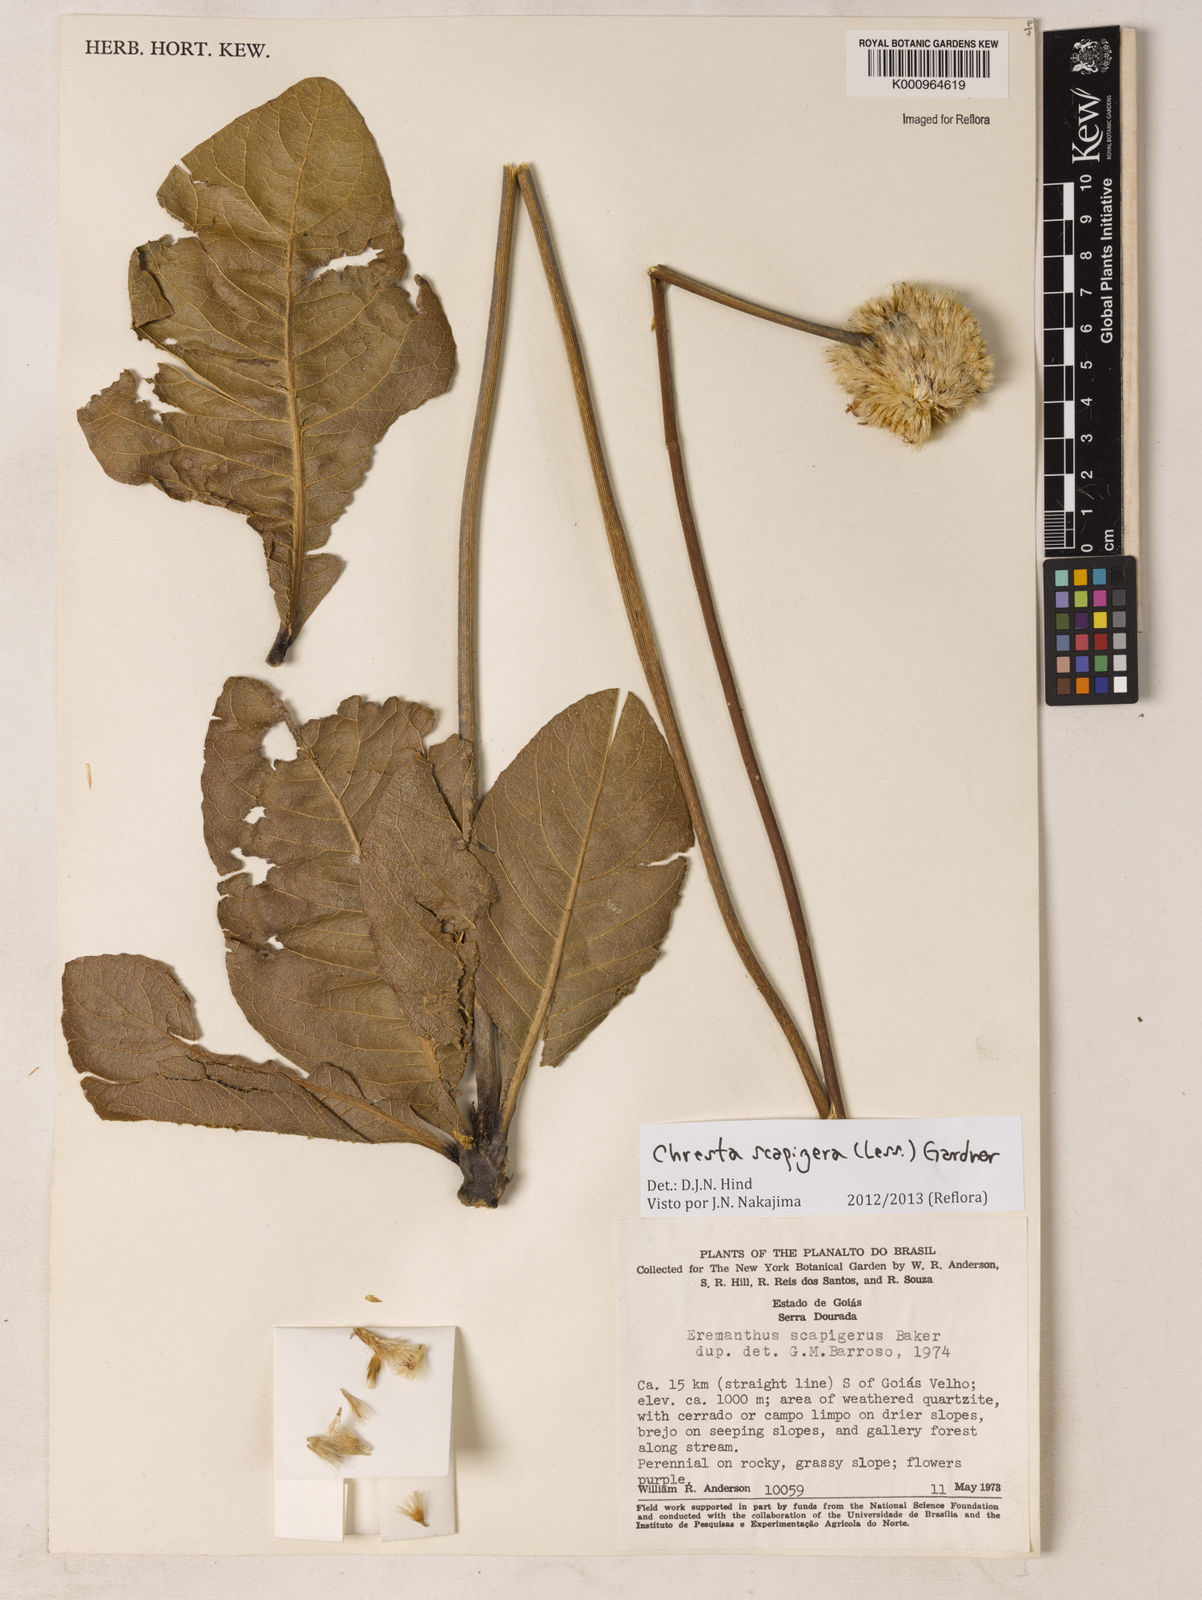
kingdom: Plantae
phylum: Tracheophyta
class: Magnoliopsida
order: Asterales
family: Asteraceae
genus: Chresta
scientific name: Chresta scapigera
